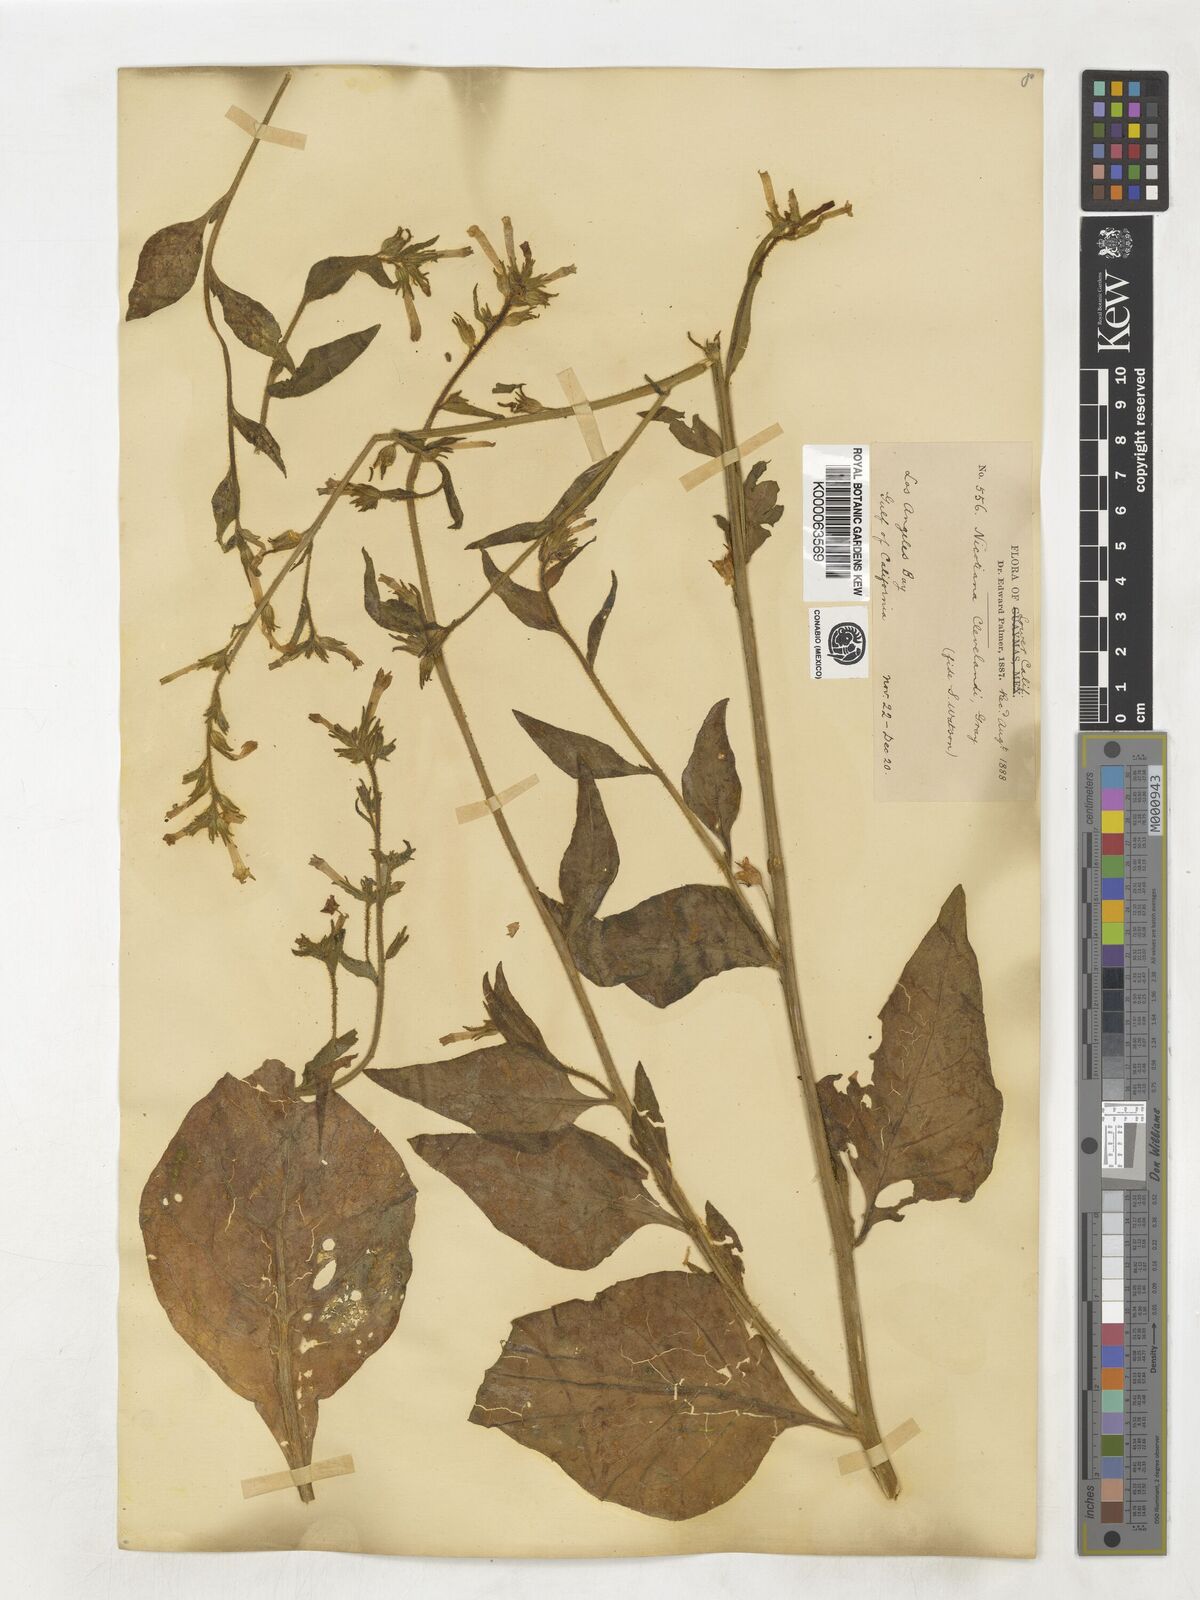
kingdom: Plantae
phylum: Tracheophyta
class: Magnoliopsida
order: Solanales
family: Solanaceae
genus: Nicotiana
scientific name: Nicotiana clevelandii
